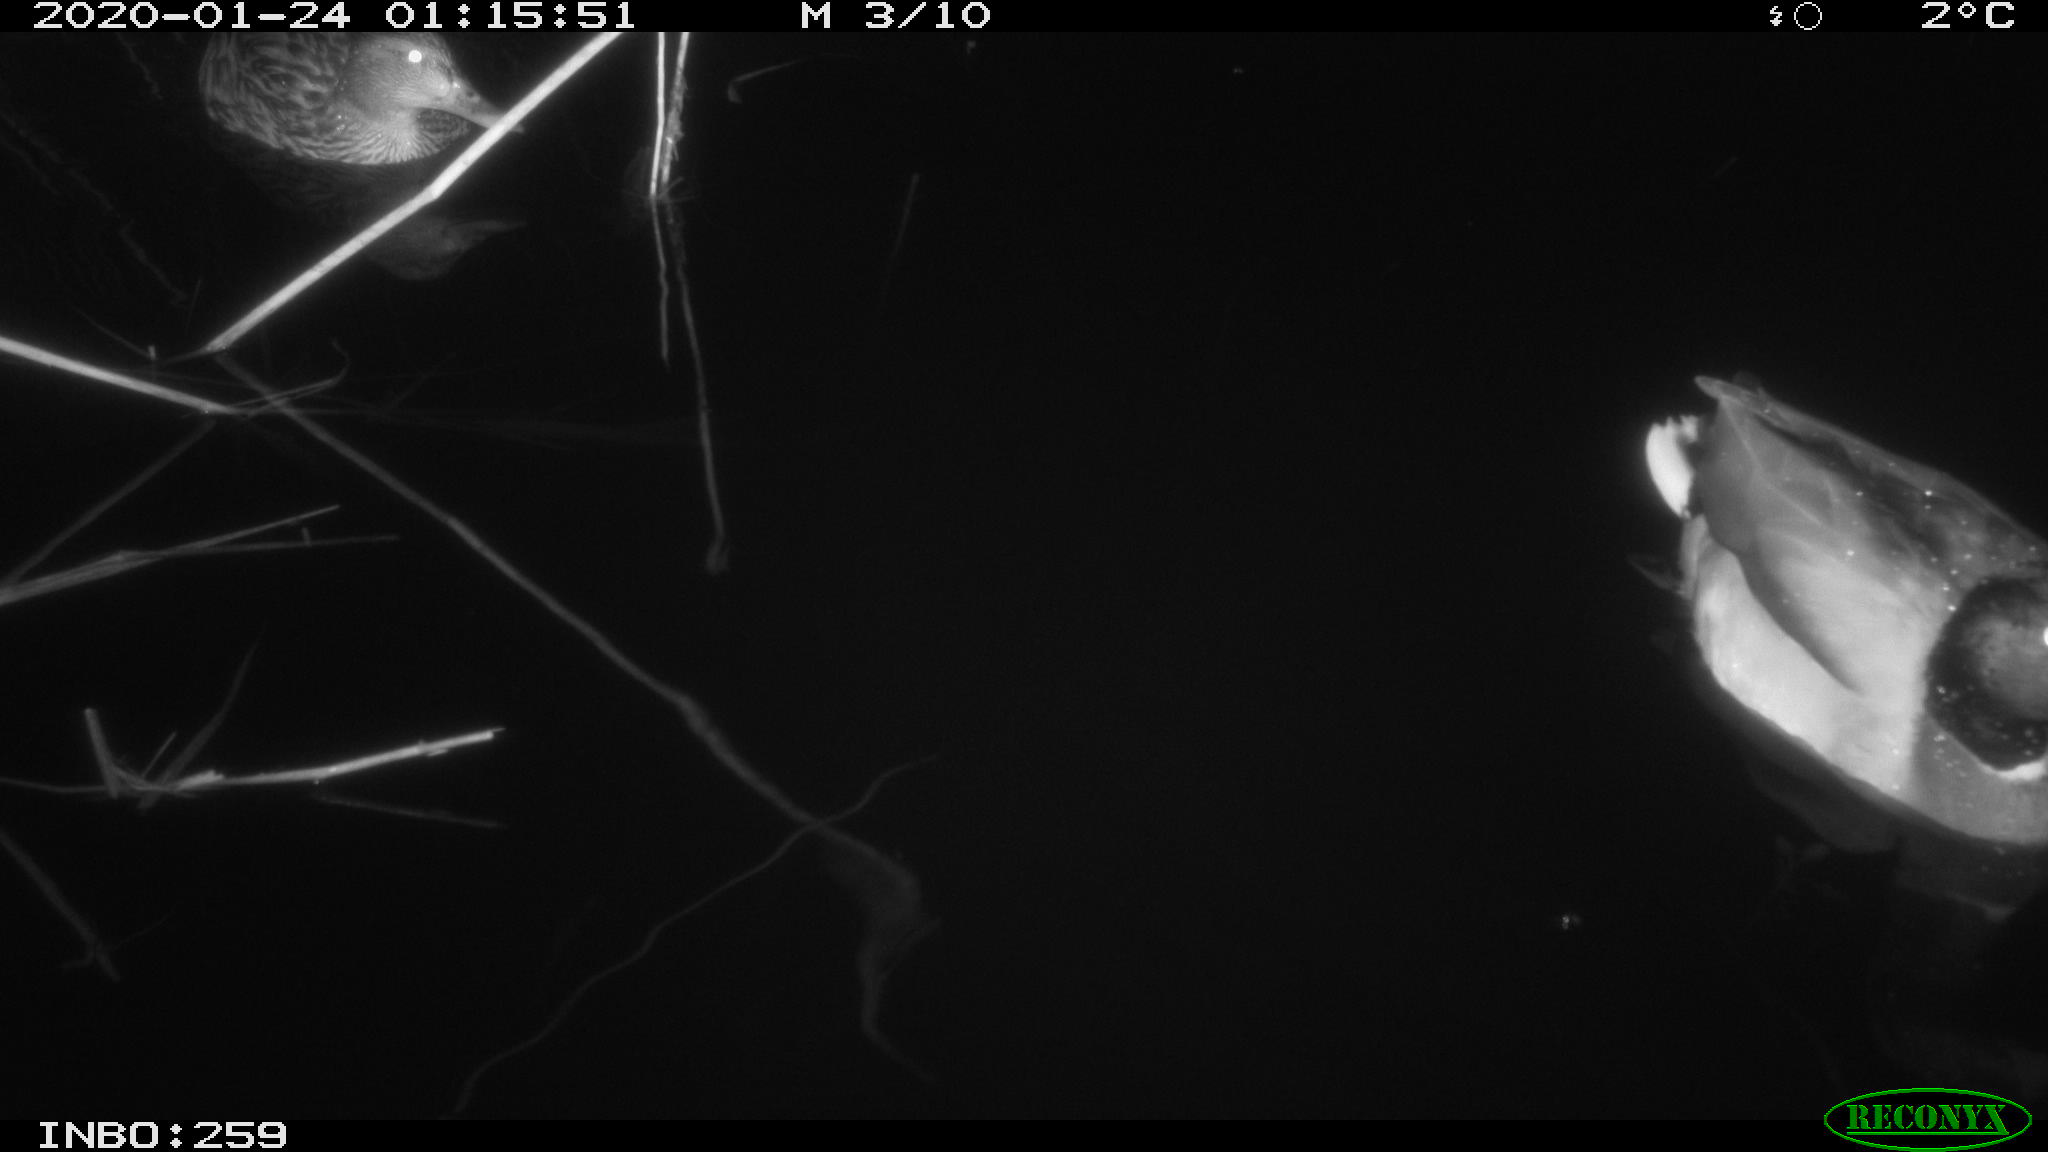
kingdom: Animalia
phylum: Chordata
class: Aves
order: Anseriformes
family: Anatidae
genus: Anas
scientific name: Anas platyrhynchos
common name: Mallard
